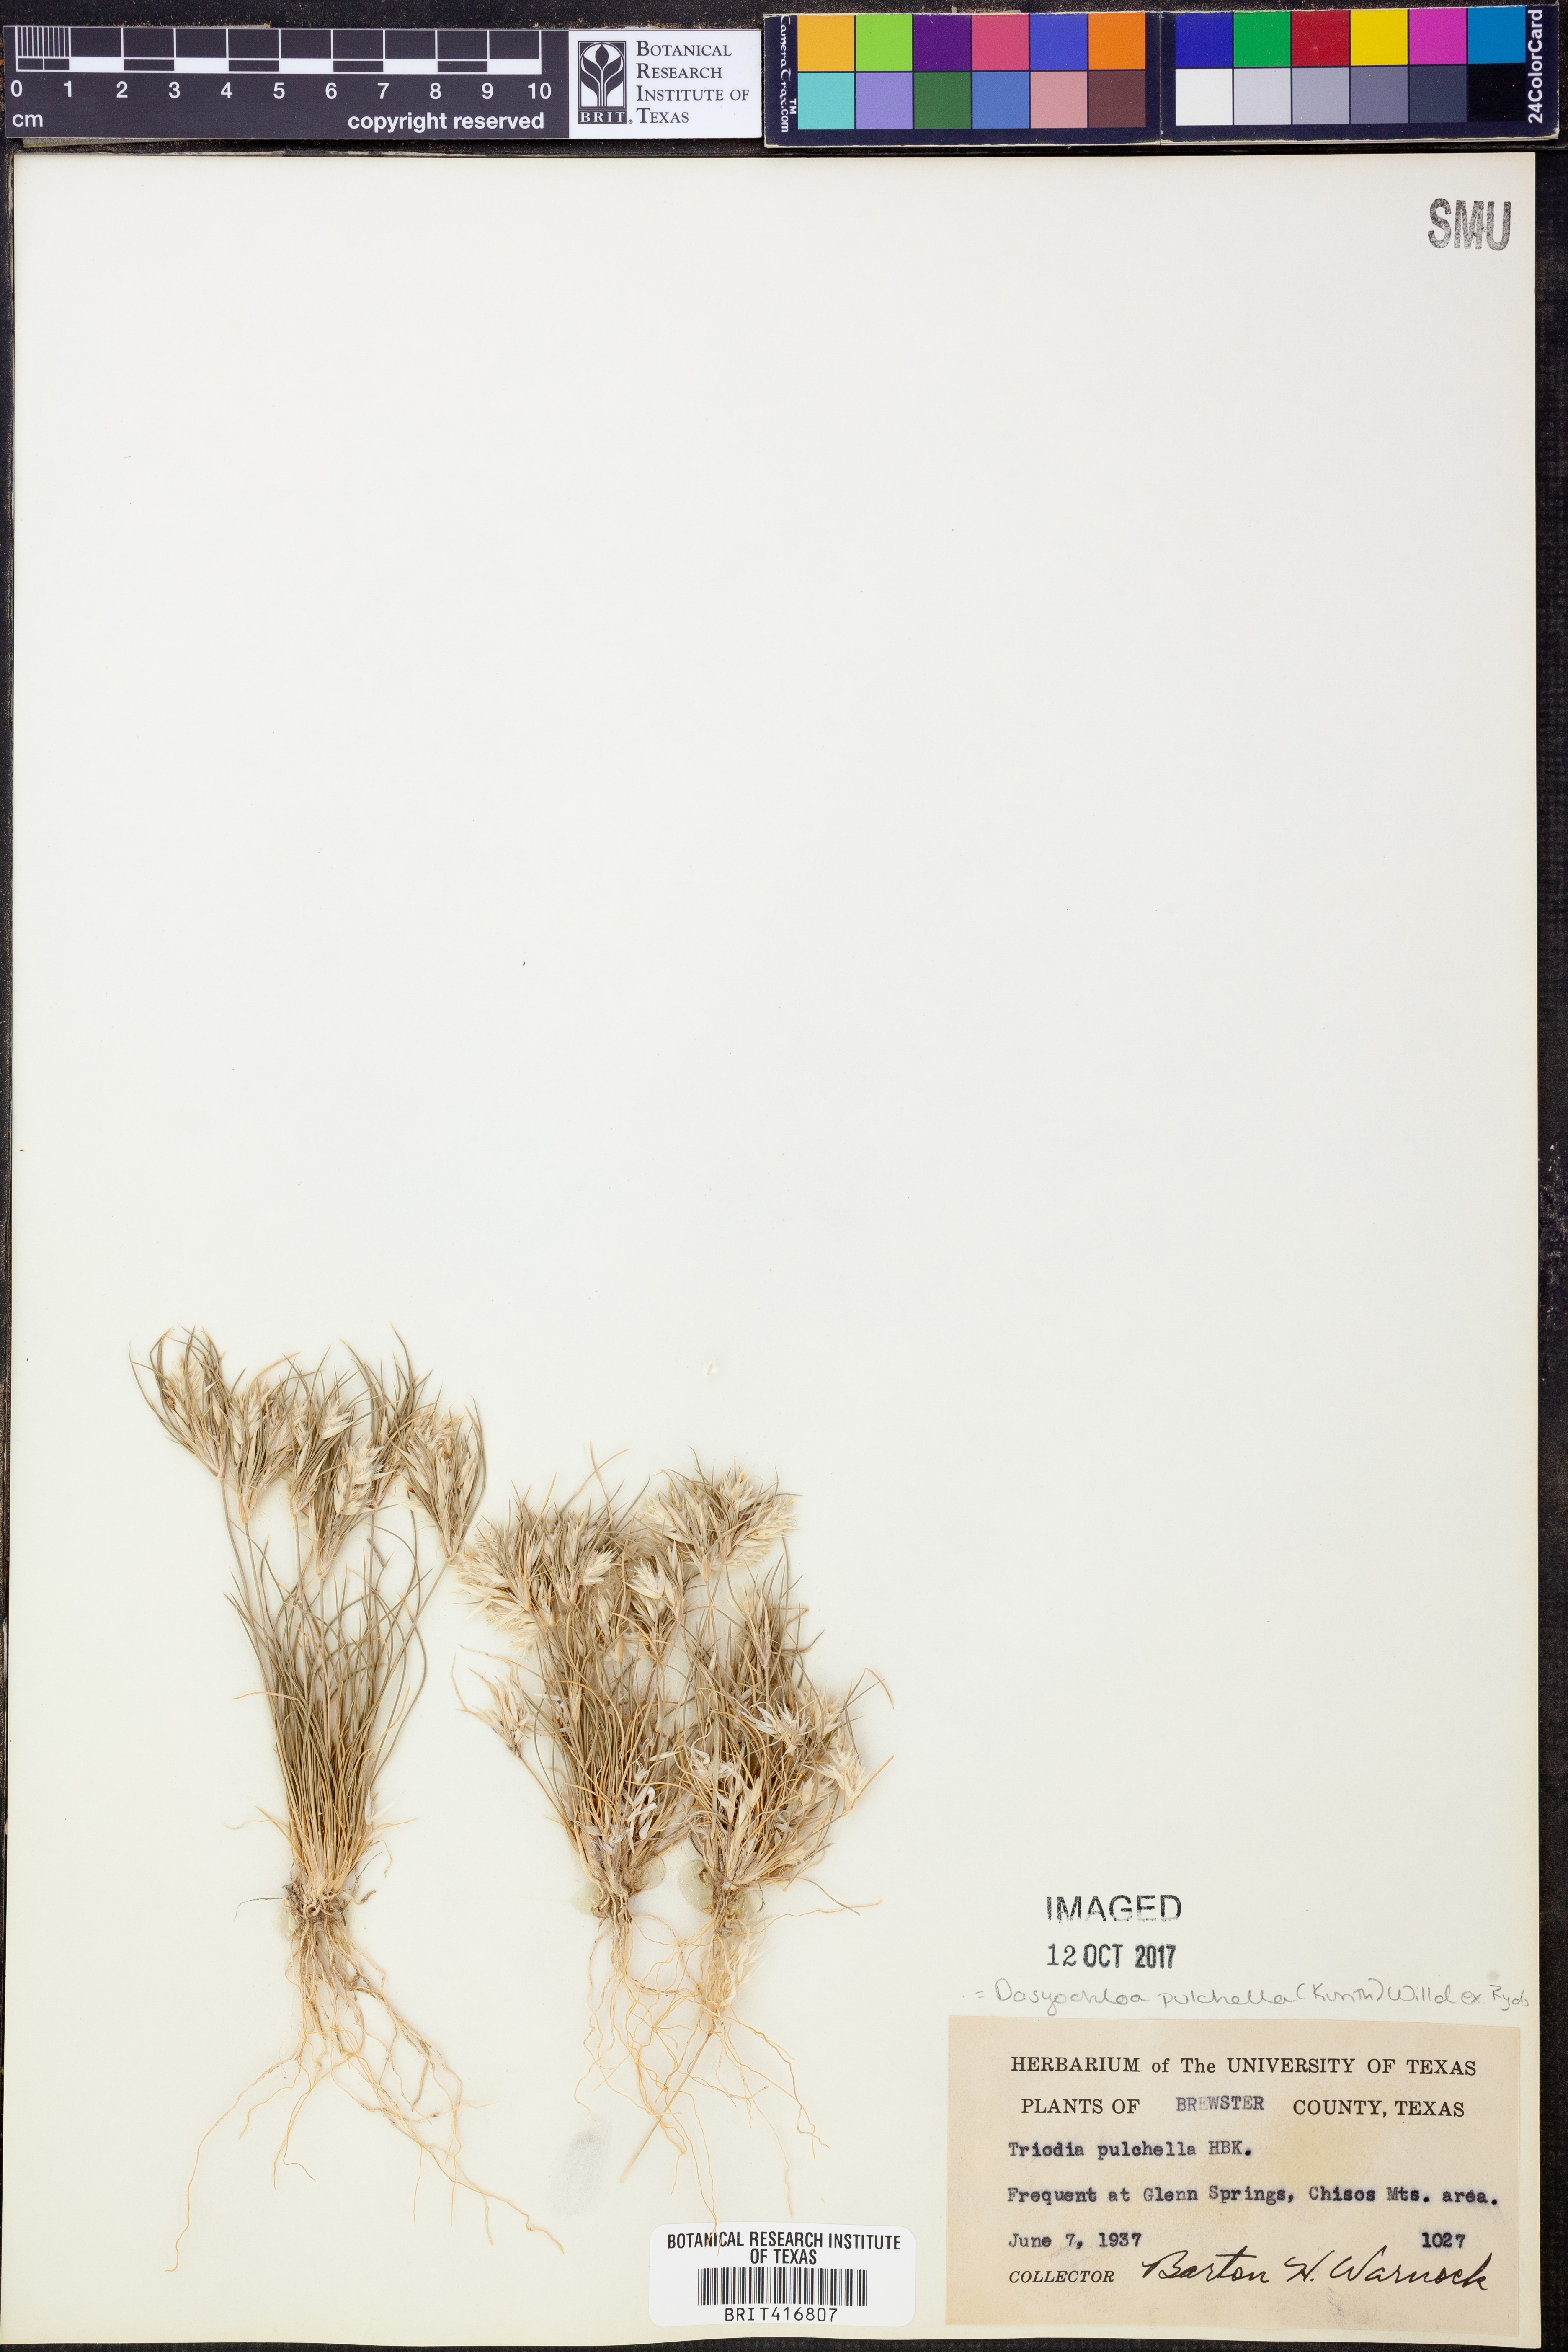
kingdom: Plantae
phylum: Tracheophyta
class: Liliopsida
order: Poales
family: Poaceae
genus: Munroa
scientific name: Munroa pulchella
